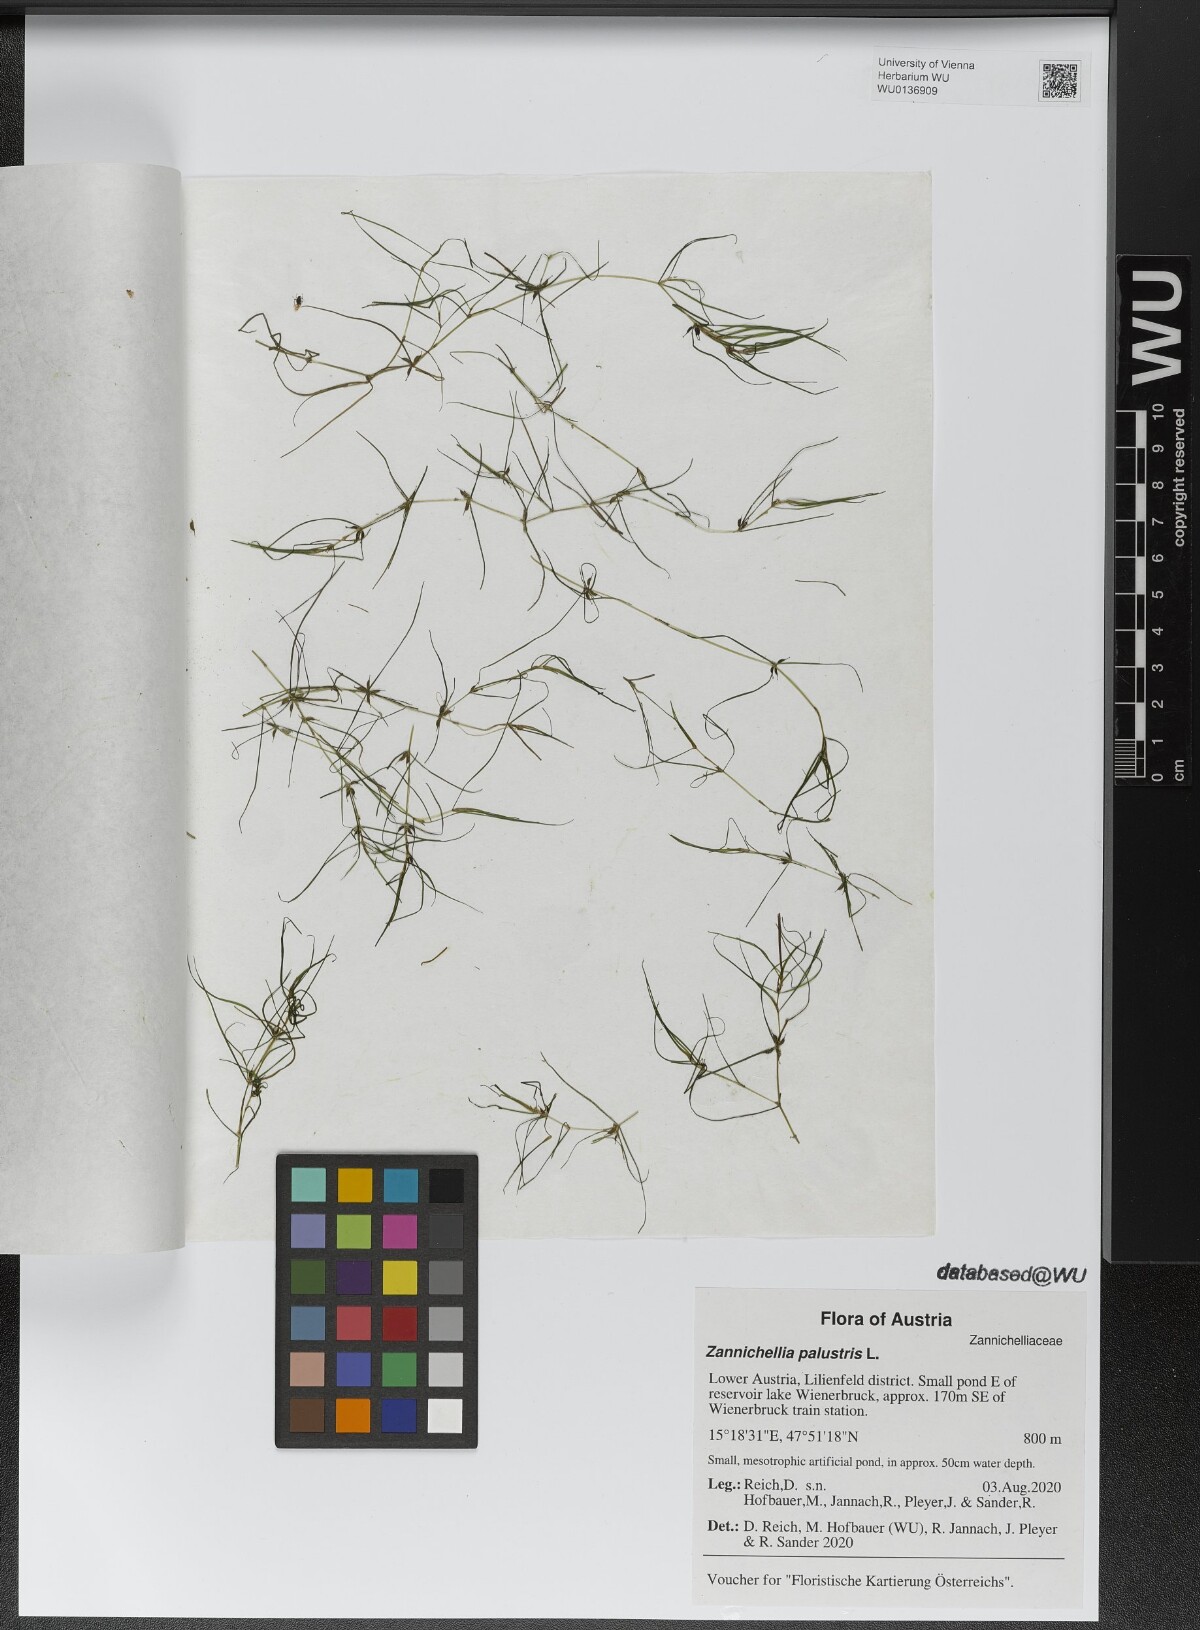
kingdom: Plantae
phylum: Tracheophyta
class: Liliopsida
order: Alismatales
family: Potamogetonaceae
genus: Zannichellia
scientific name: Zannichellia palustris
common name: Horned pondweed
